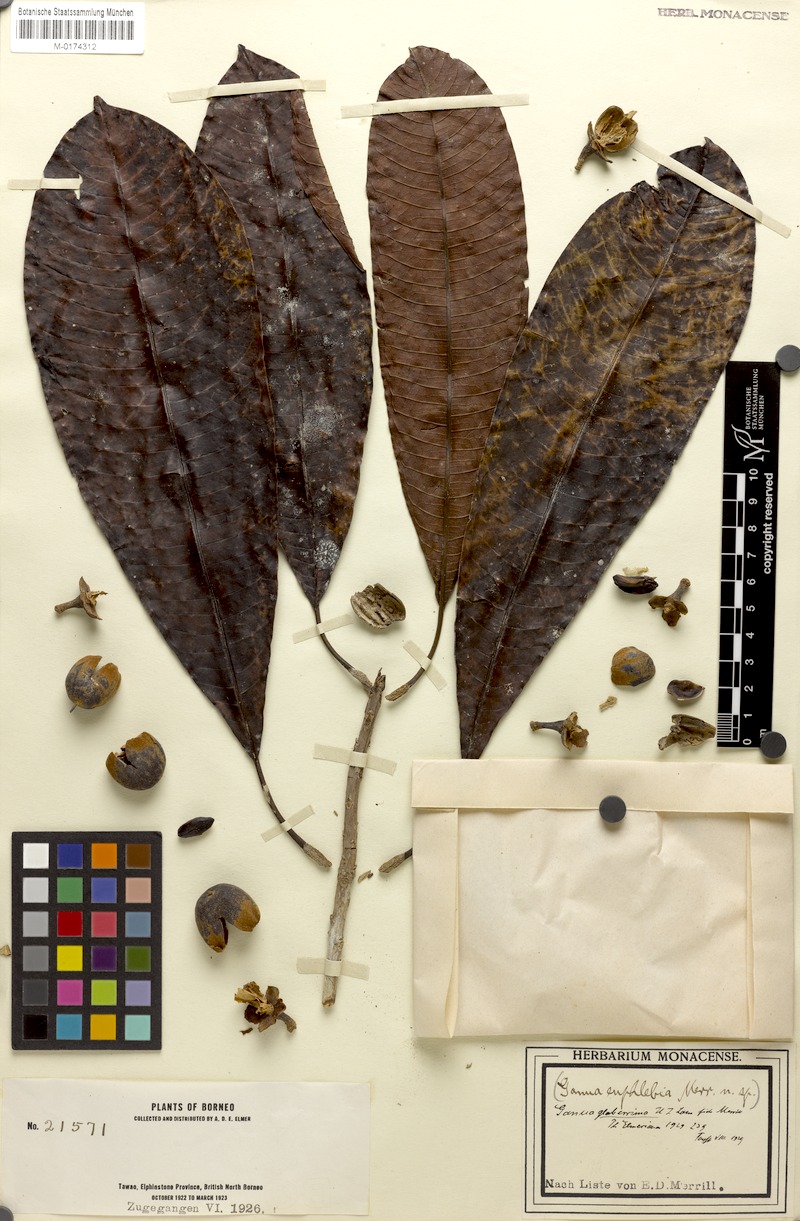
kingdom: Plantae
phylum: Tracheophyta
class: Magnoliopsida
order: Ericales
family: Sapotaceae
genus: Madhuca
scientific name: Madhuca kingiana
